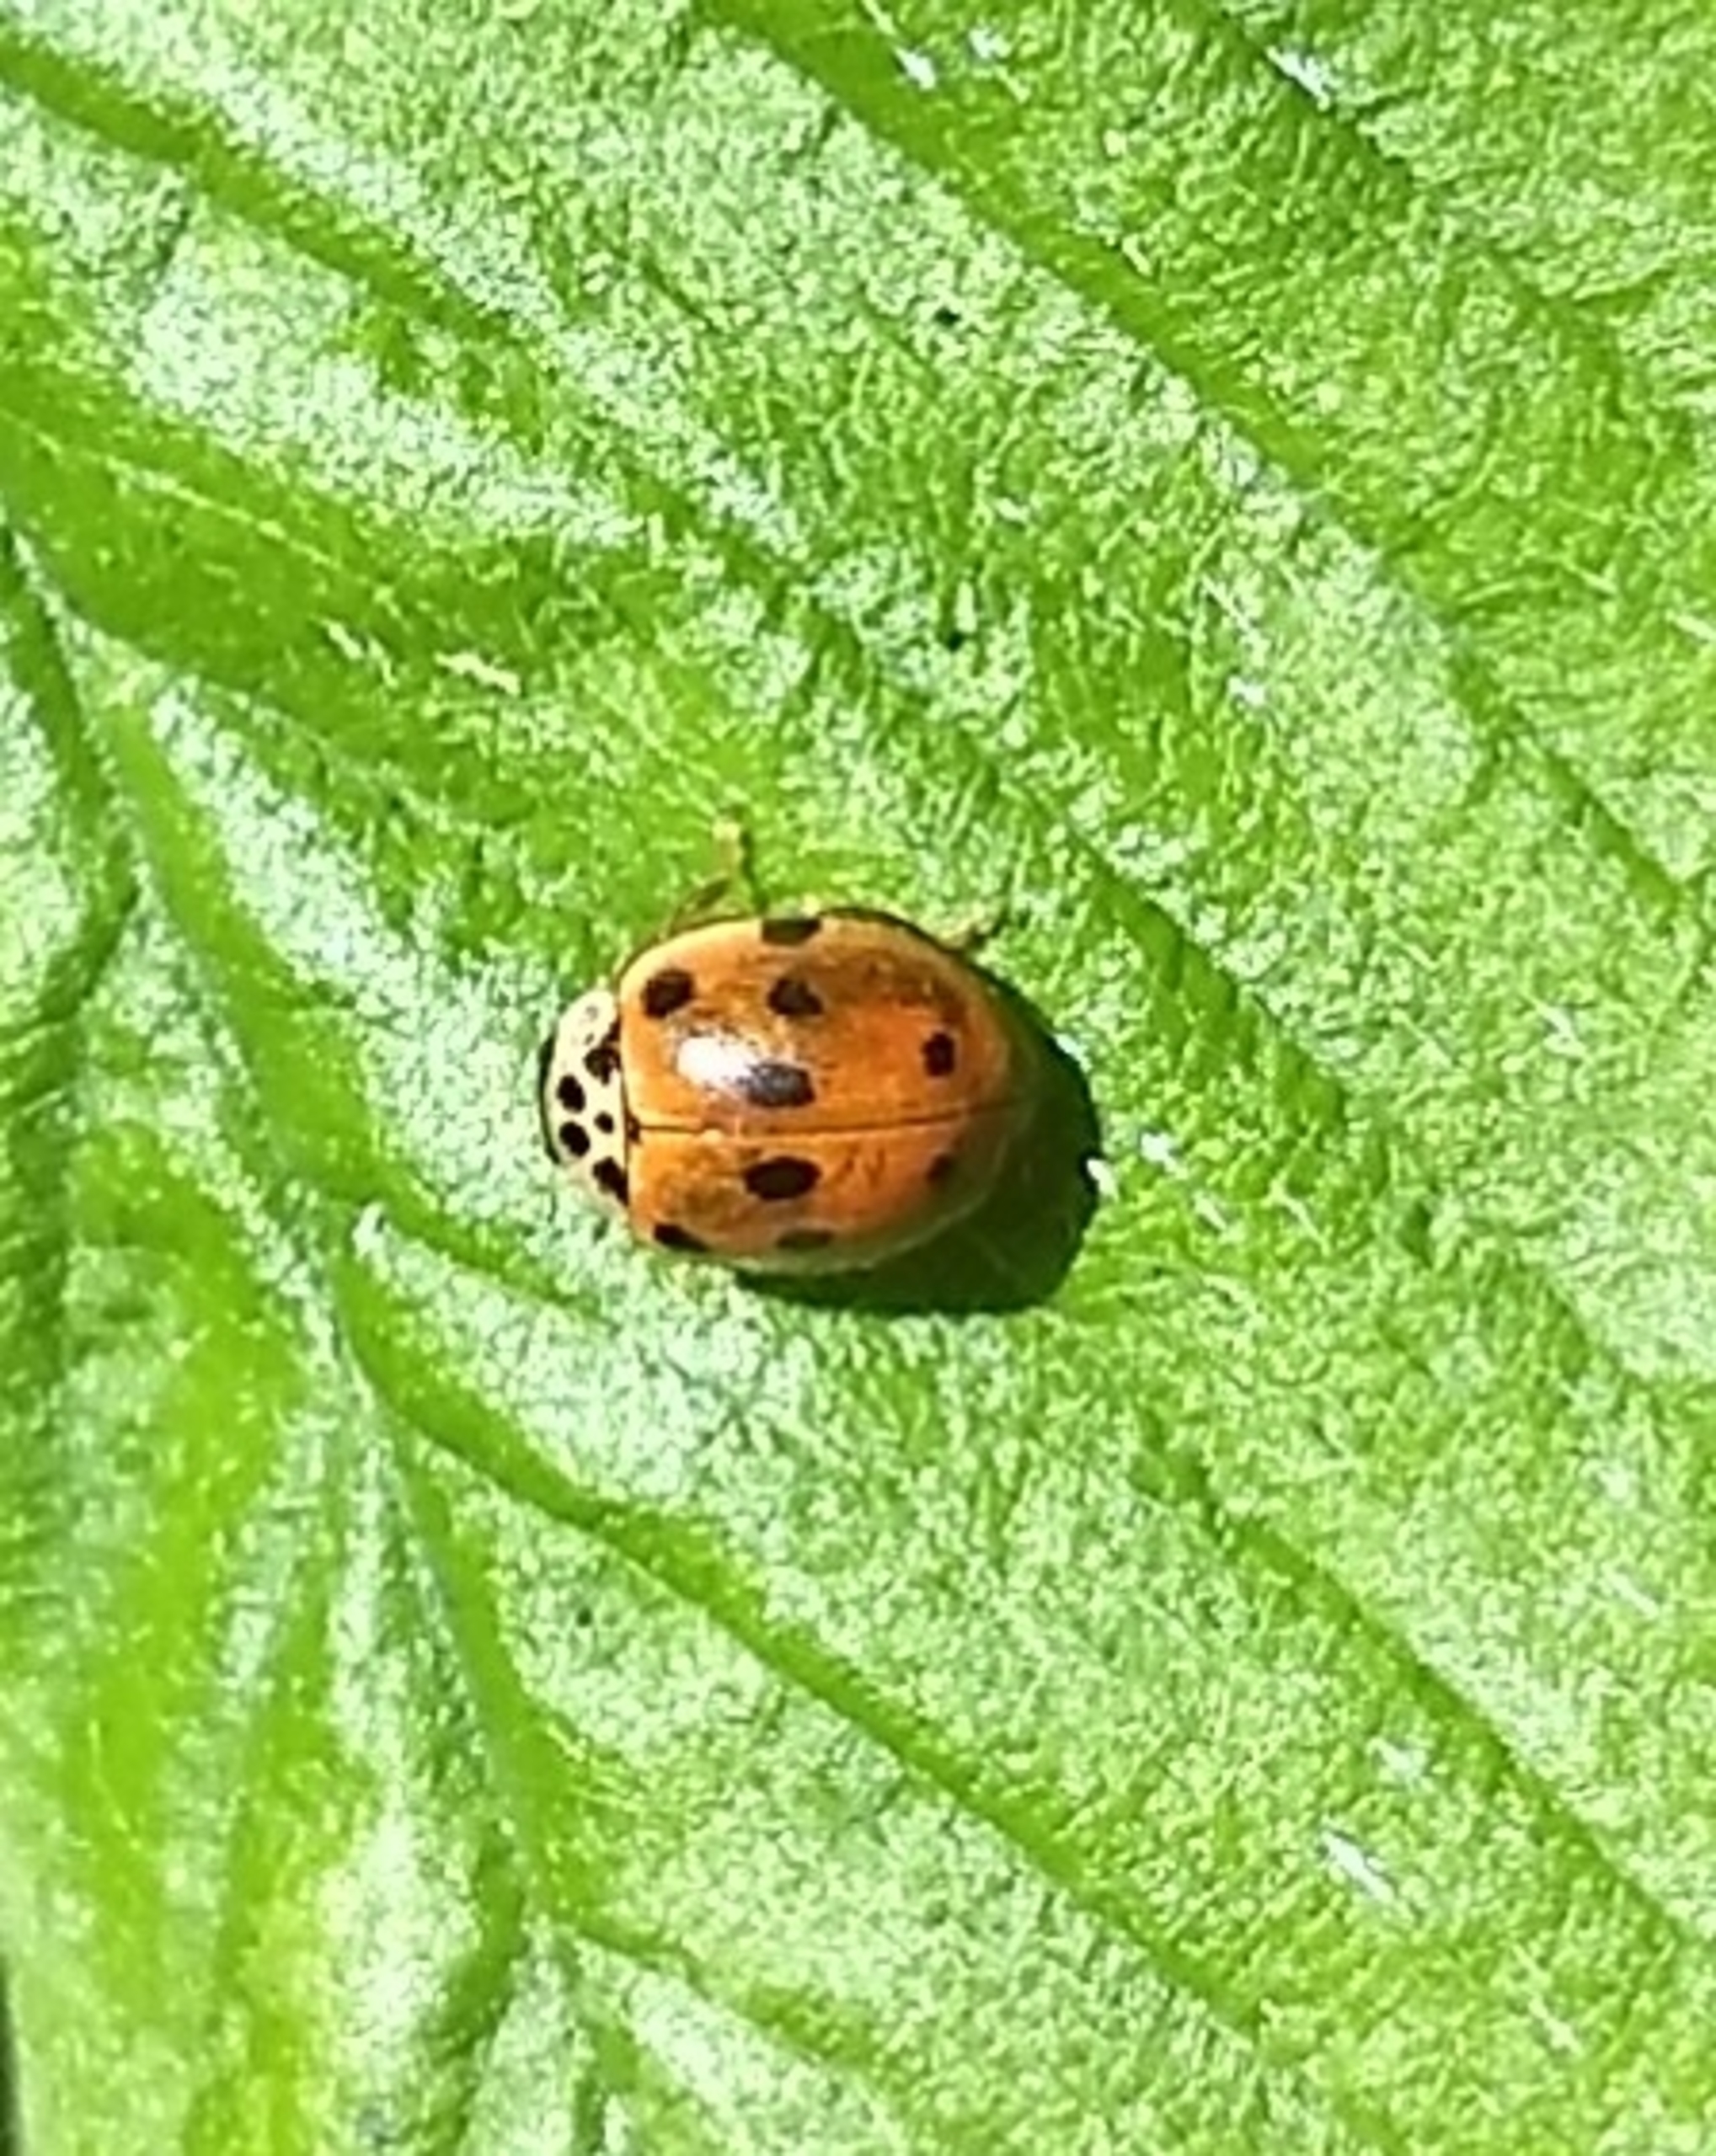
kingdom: Animalia
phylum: Arthropoda
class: Insecta
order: Coleoptera
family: Coccinellidae
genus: Adalia
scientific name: Adalia decempunctata
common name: Tiplettet mariehøne
